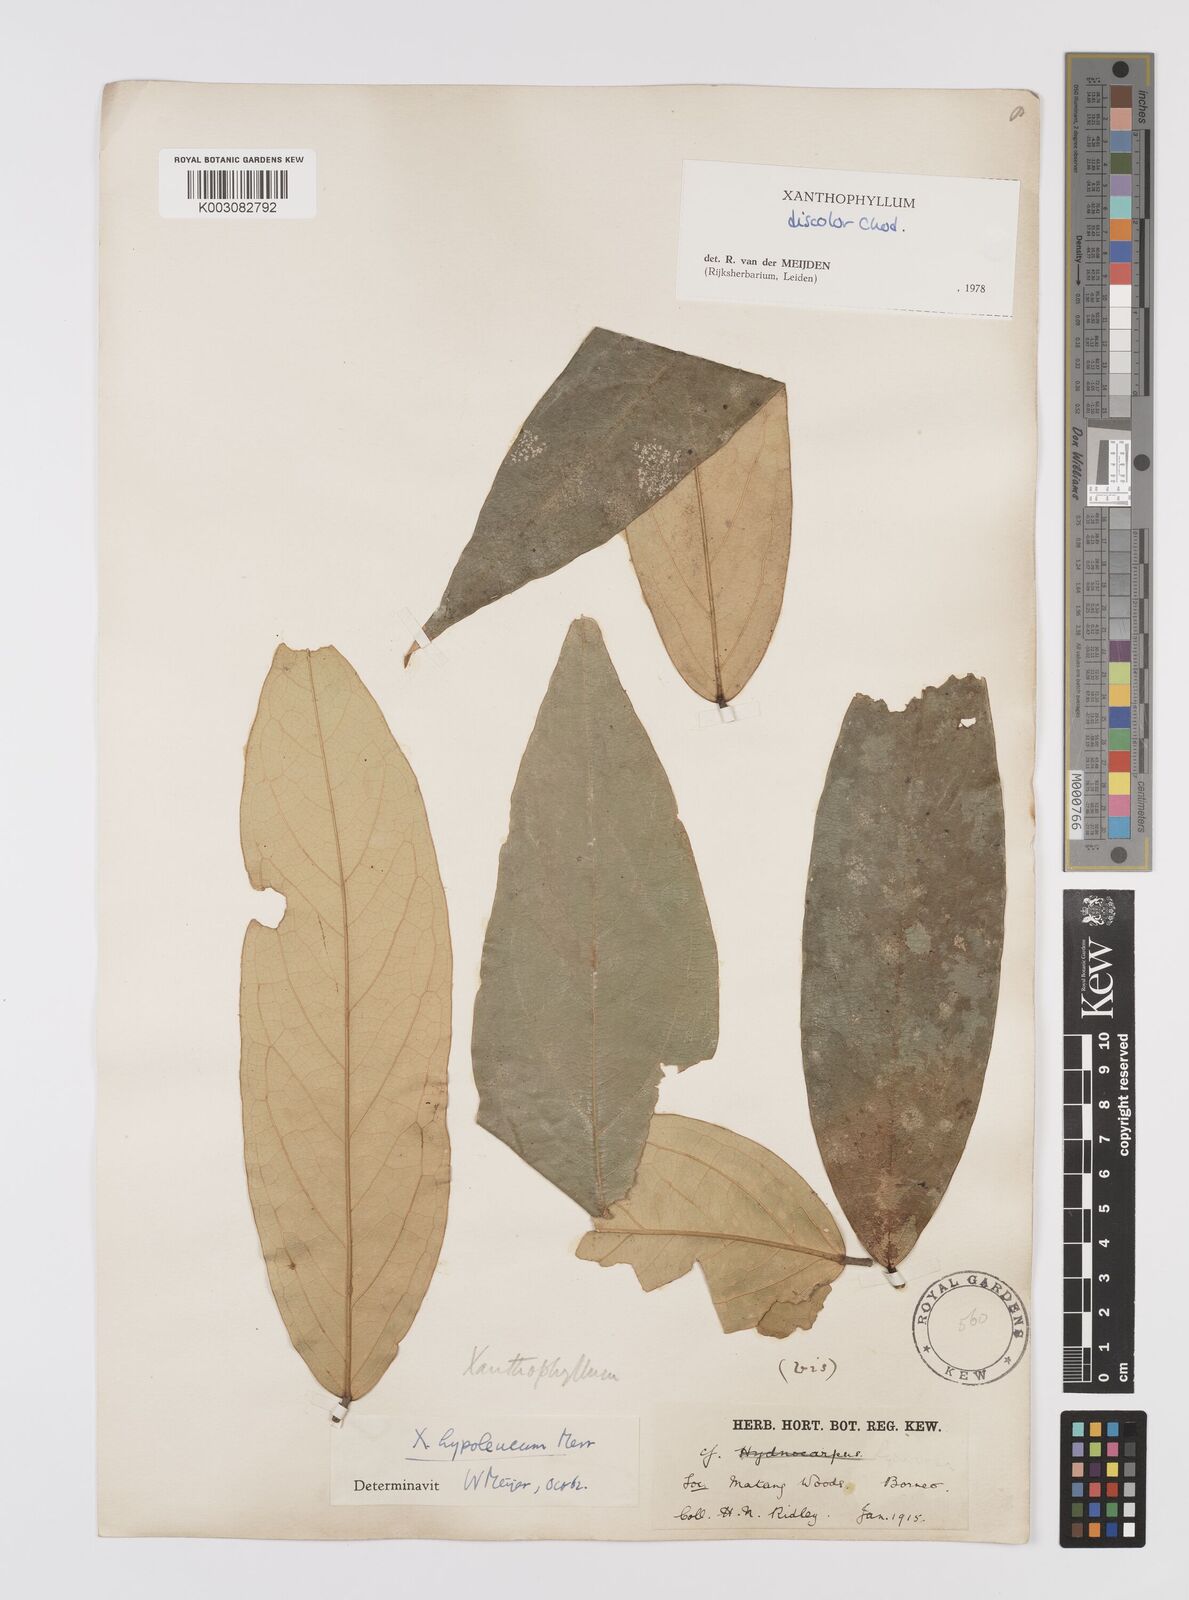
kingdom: Plantae
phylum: Tracheophyta
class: Magnoliopsida
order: Fabales
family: Polygalaceae
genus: Xanthophyllum
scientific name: Xanthophyllum discolor
